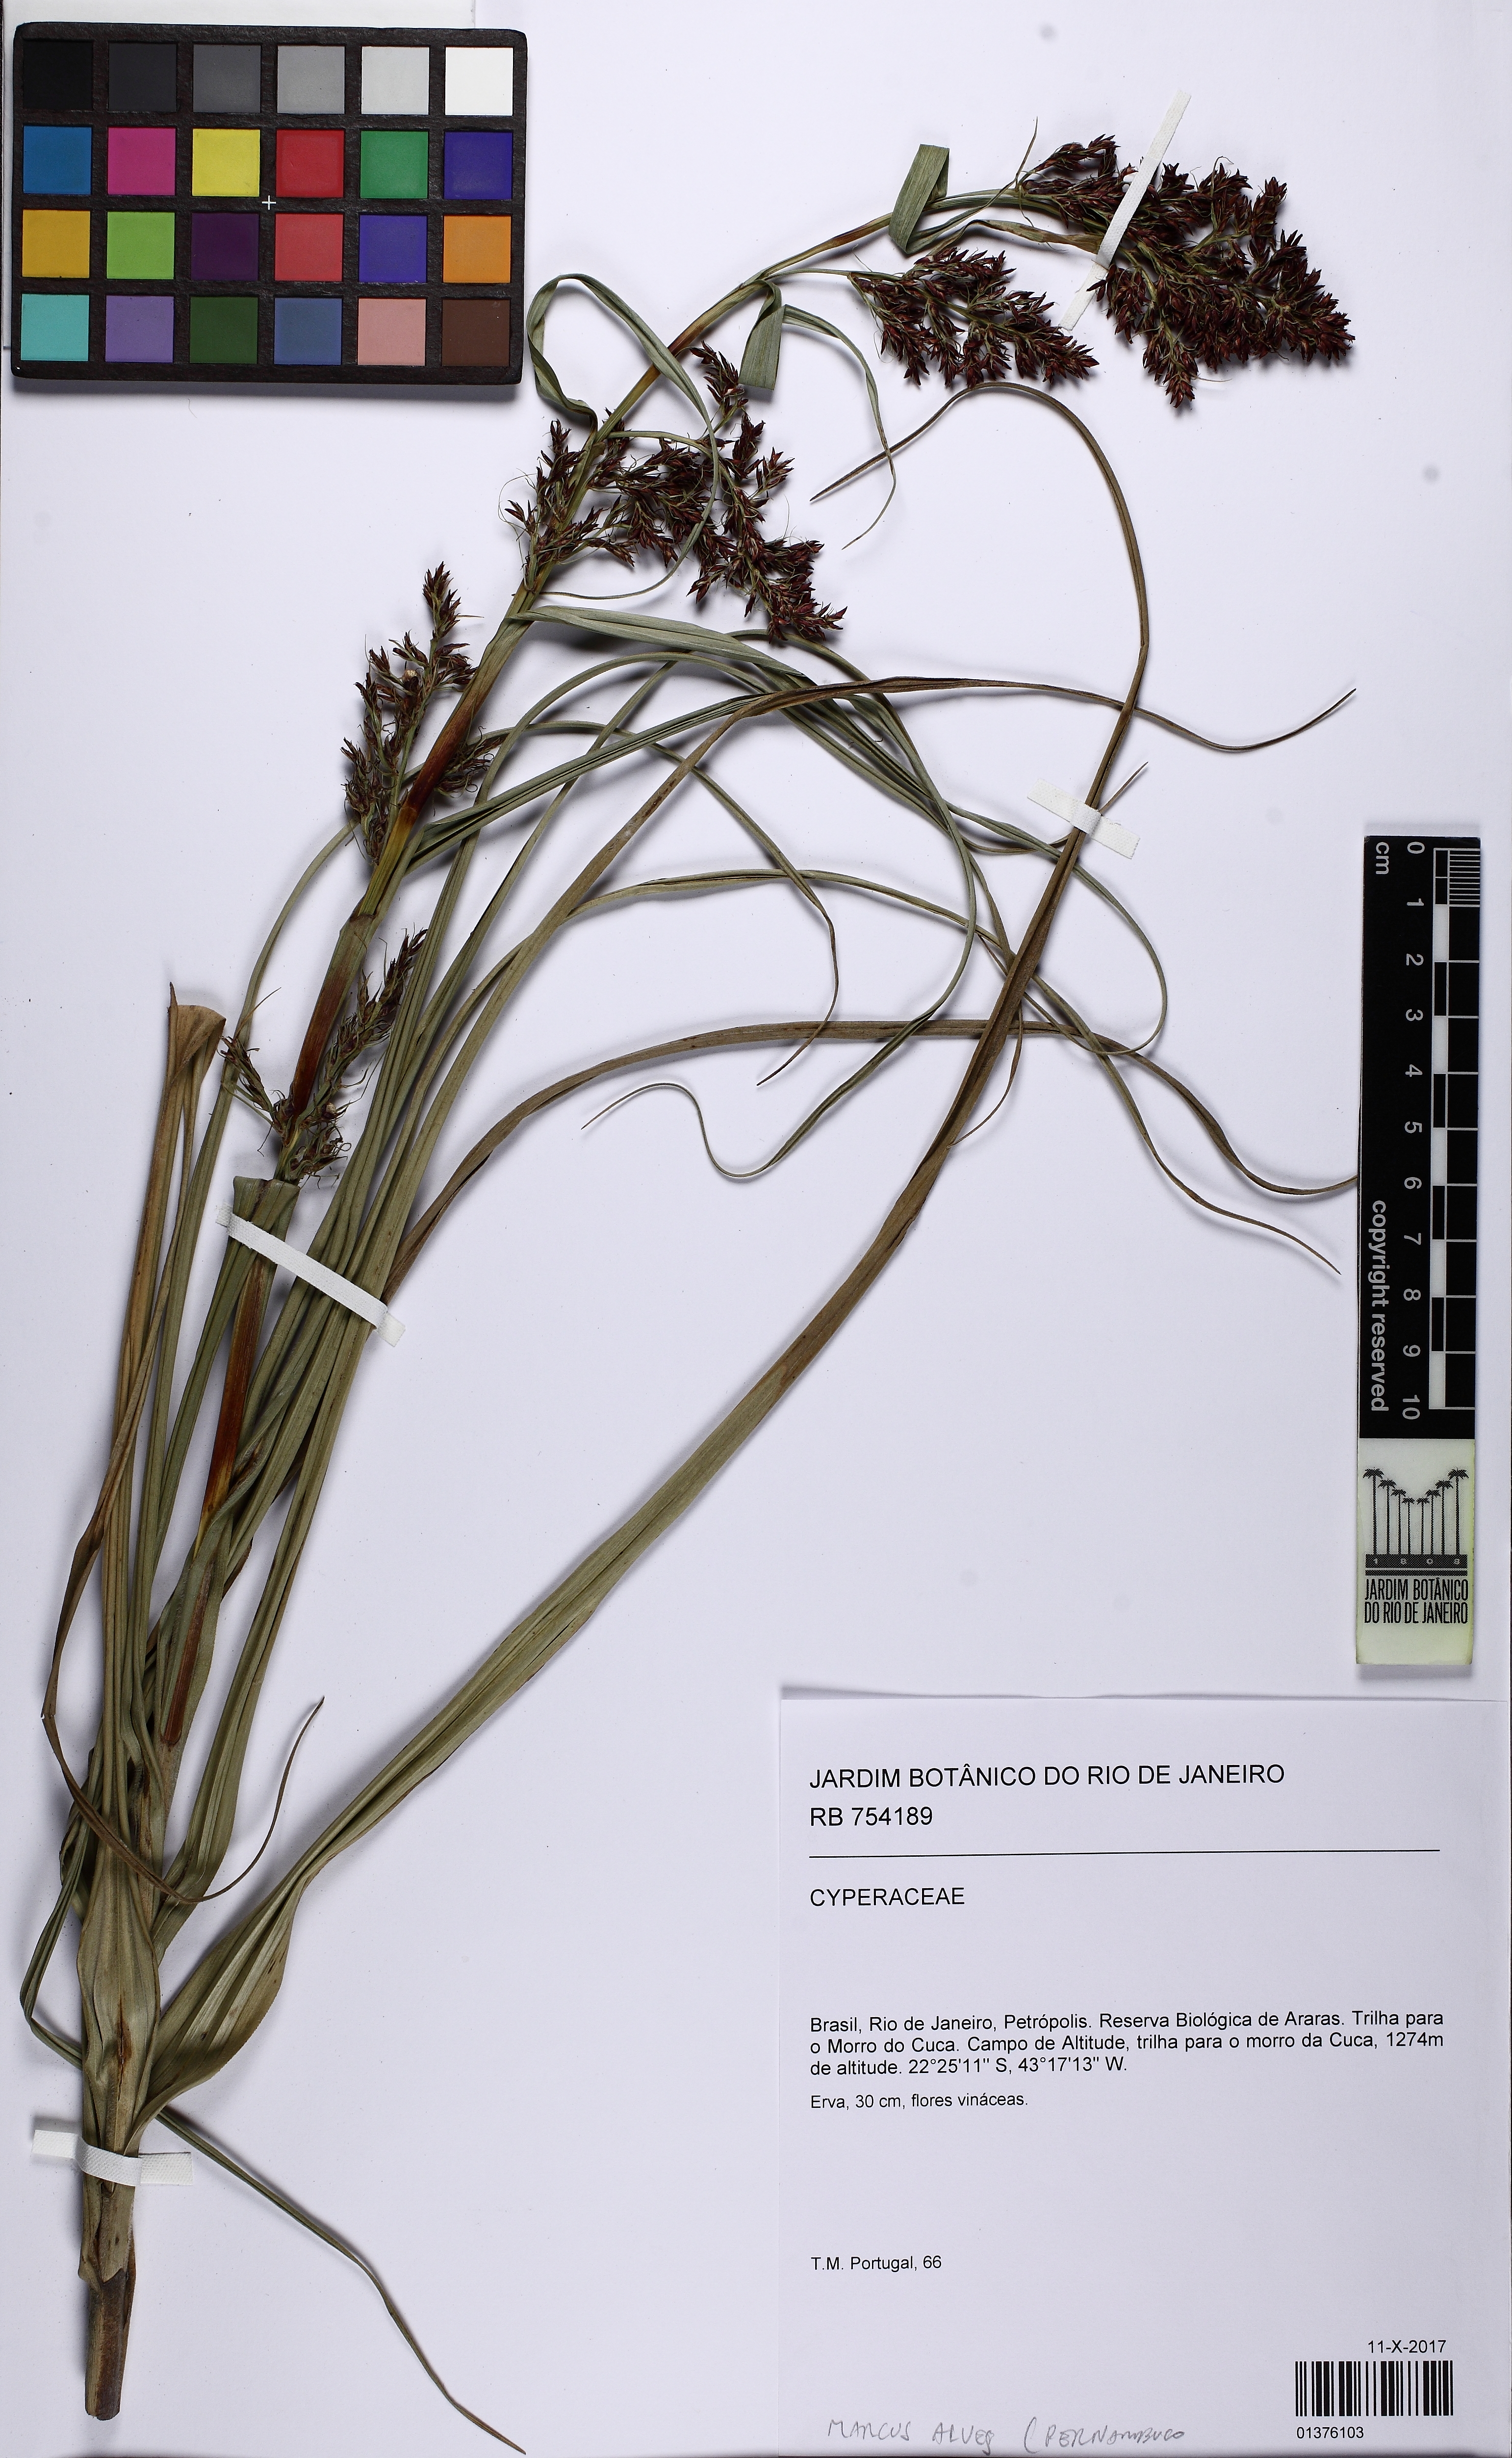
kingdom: Plantae
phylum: Tracheophyta
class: Liliopsida
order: Poales
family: Cyperaceae
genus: Scleria
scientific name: Scleria acanthocarpa
